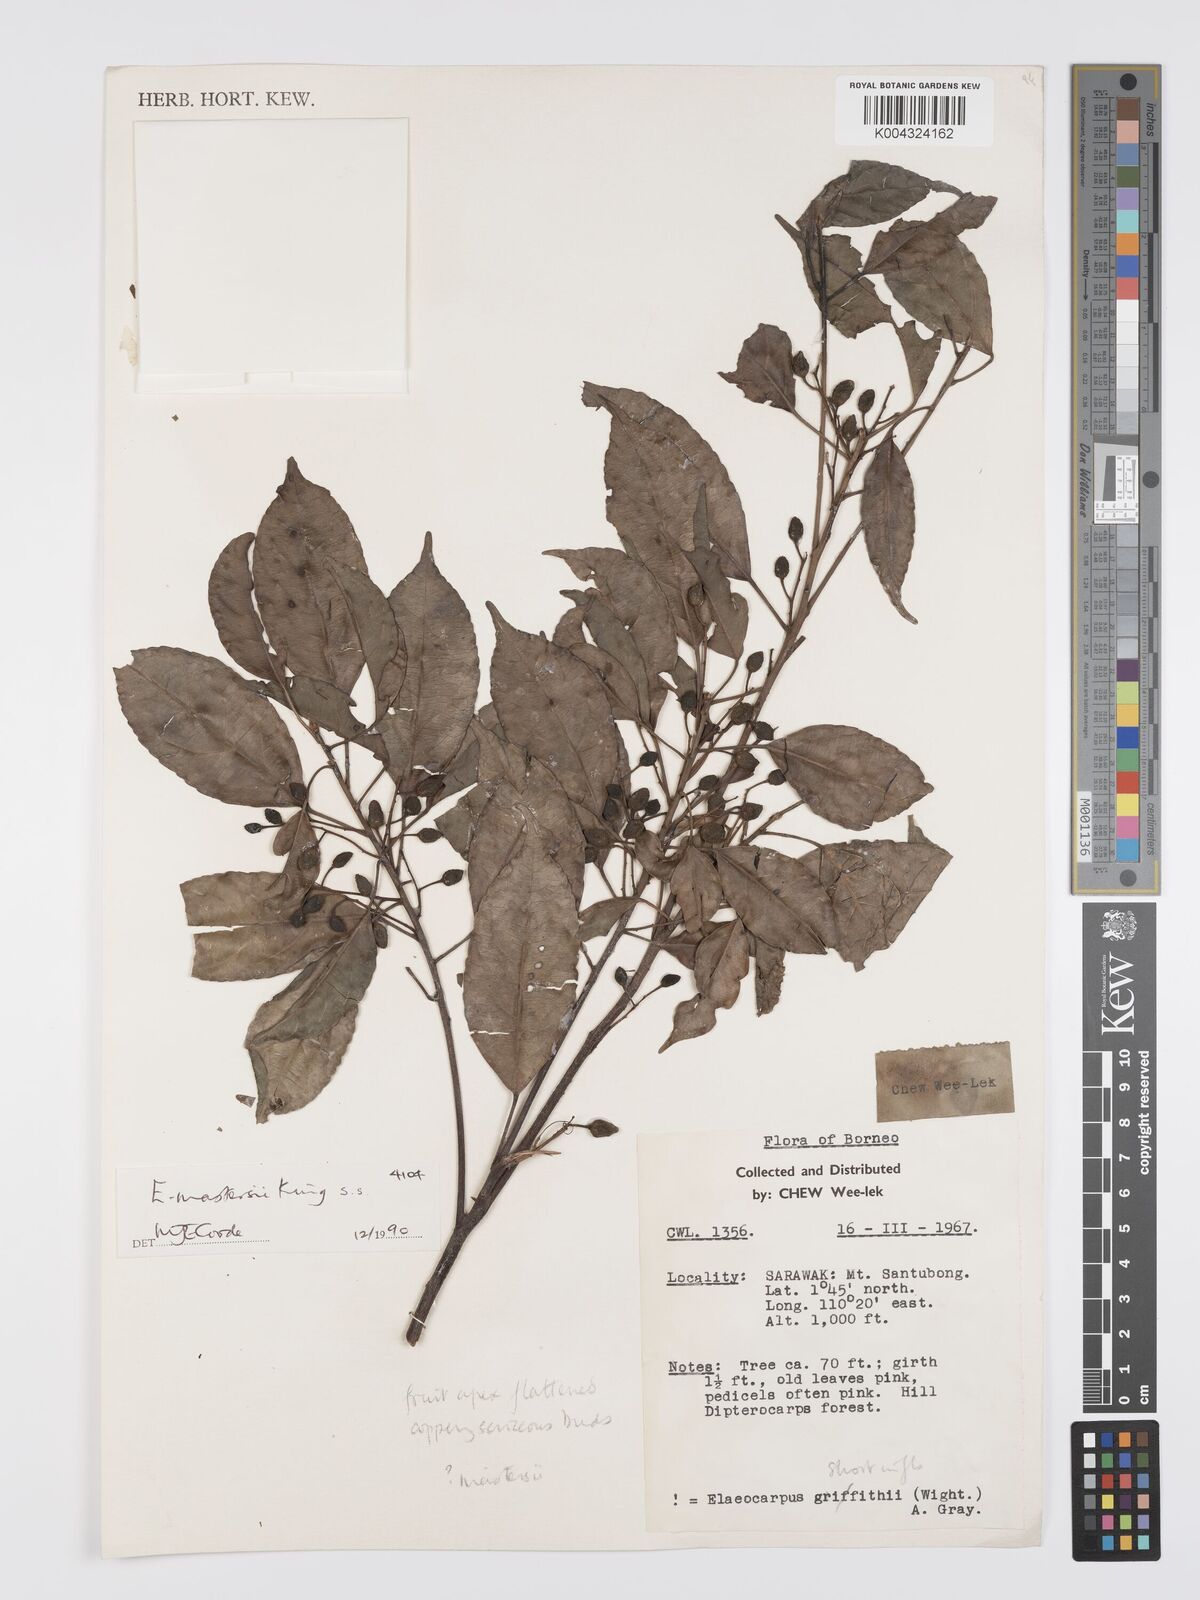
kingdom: Plantae
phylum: Tracheophyta
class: Magnoliopsida
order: Oxalidales
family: Elaeocarpaceae
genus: Elaeocarpus
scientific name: Elaeocarpus mastersii
